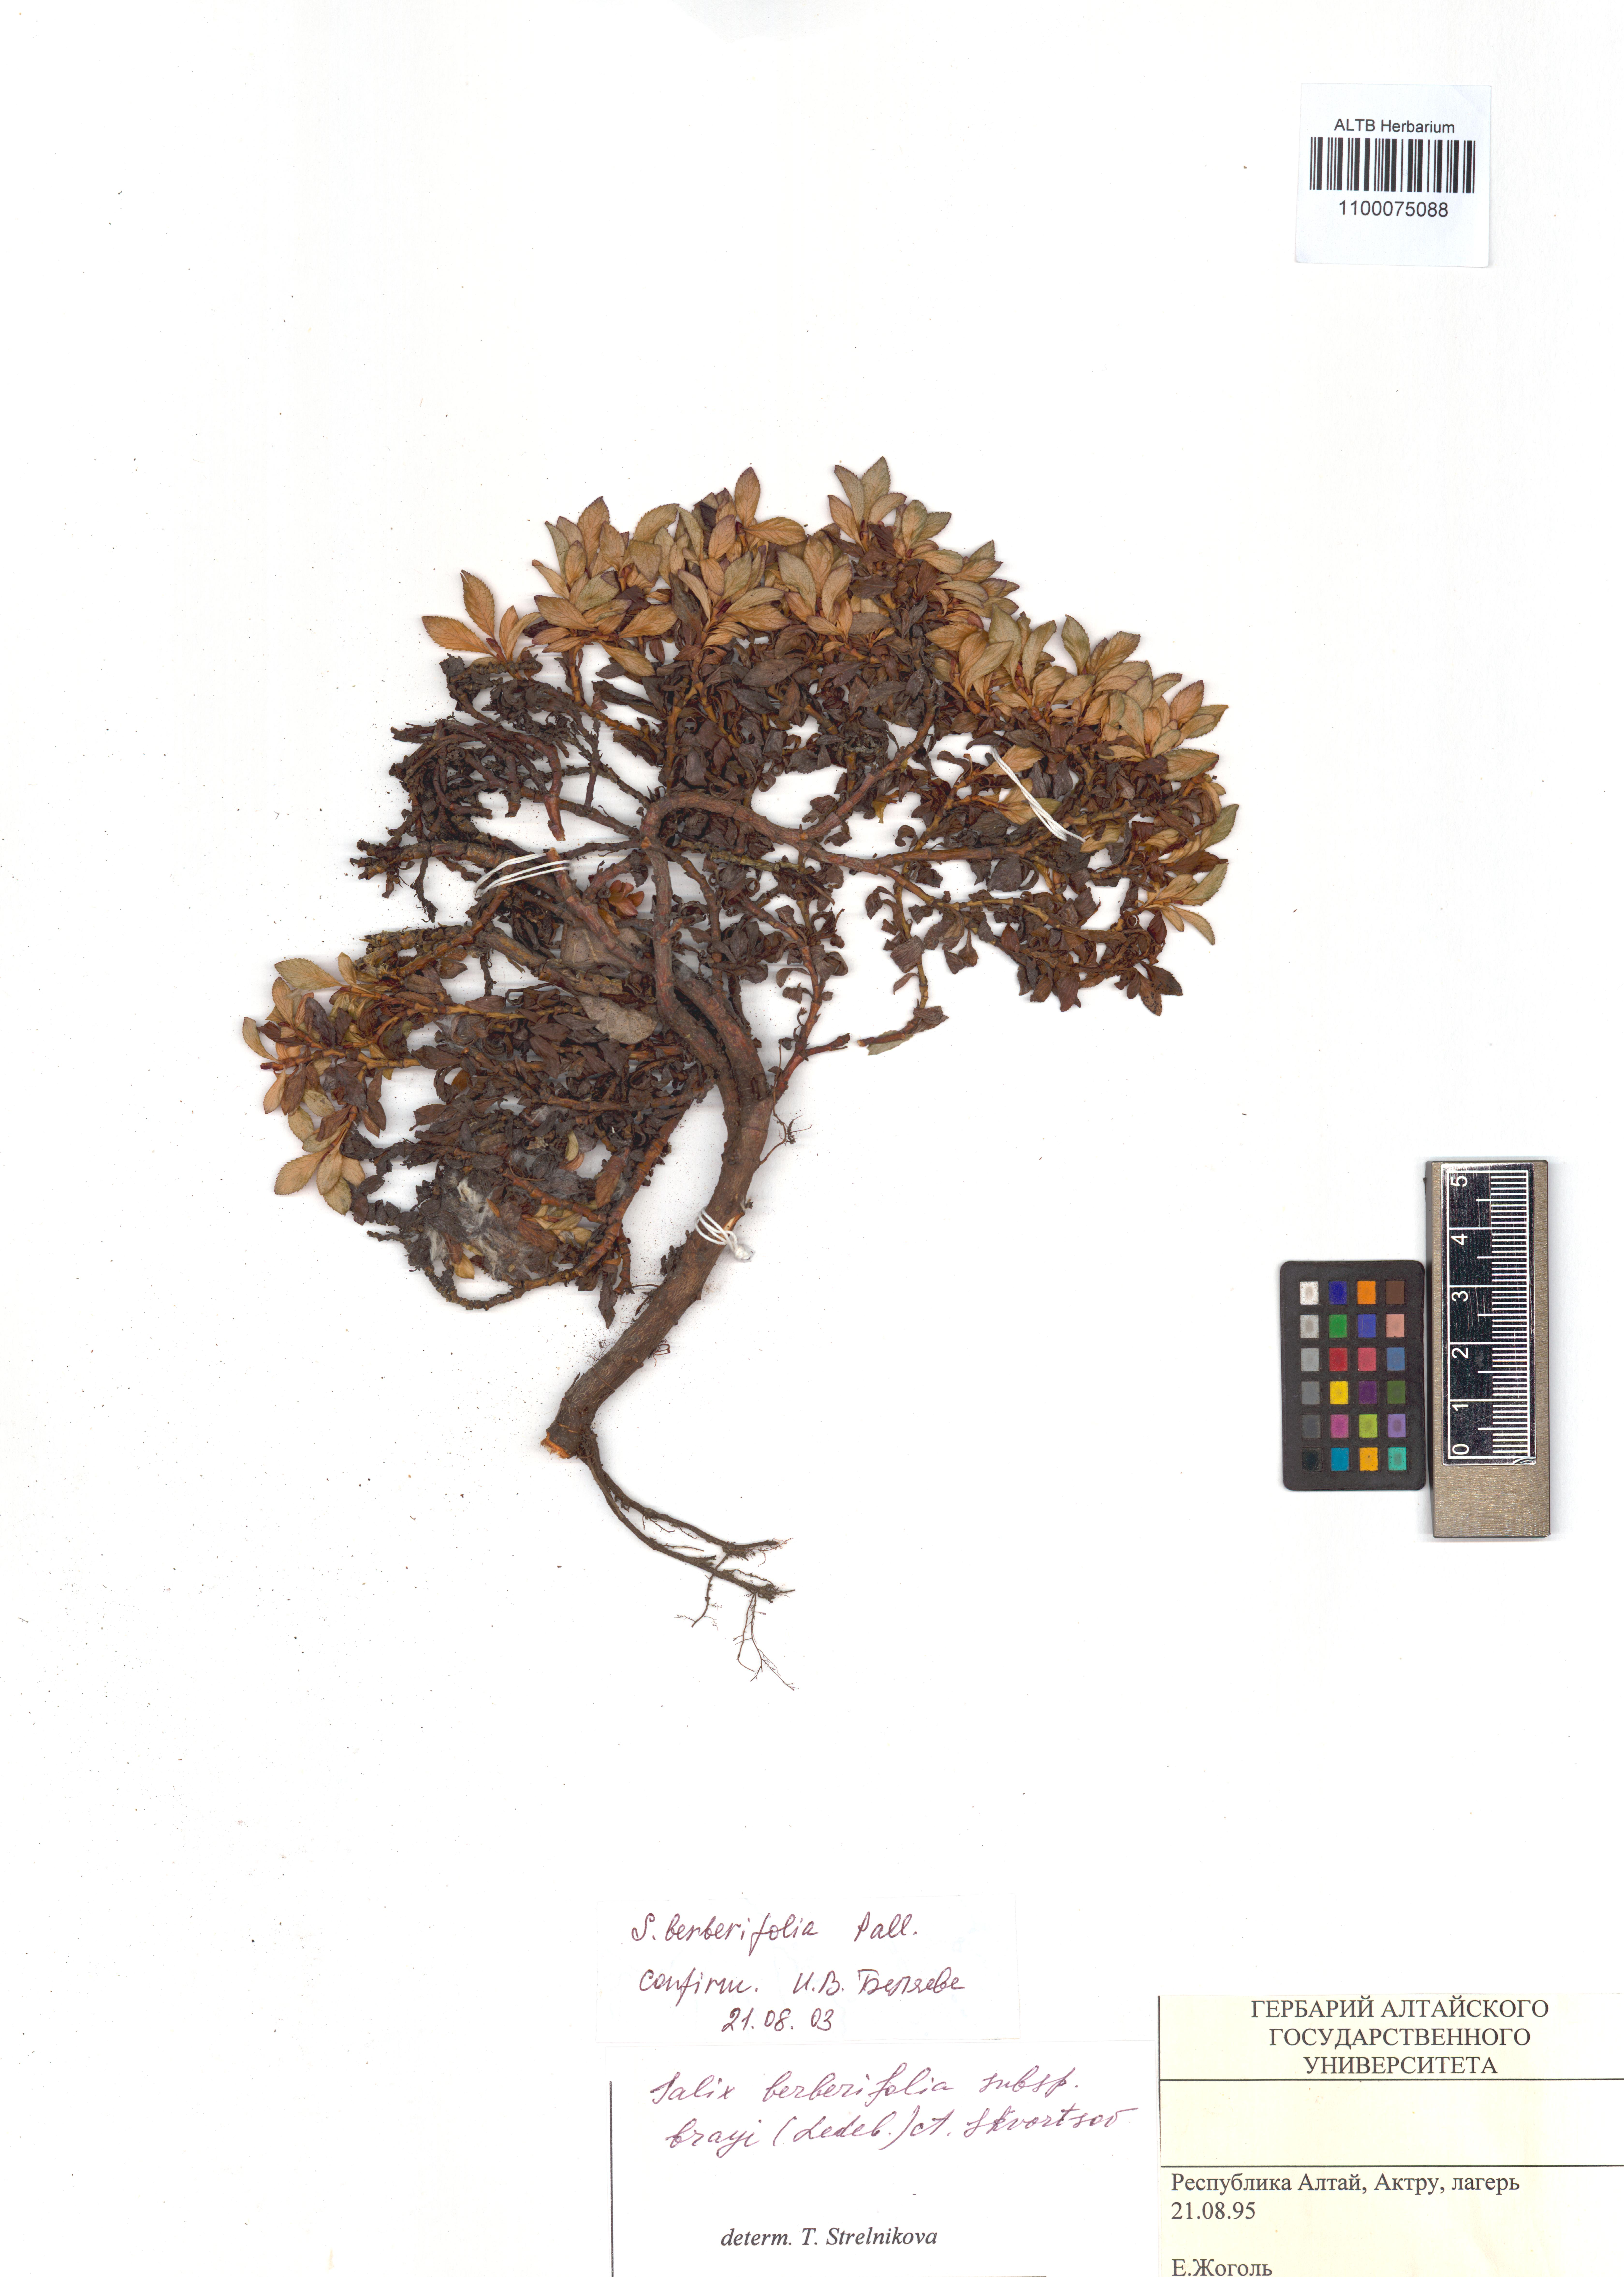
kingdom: Plantae
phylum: Tracheophyta
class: Magnoliopsida
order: Malpighiales
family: Salicaceae
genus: Salix
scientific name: Salix berberifolia
